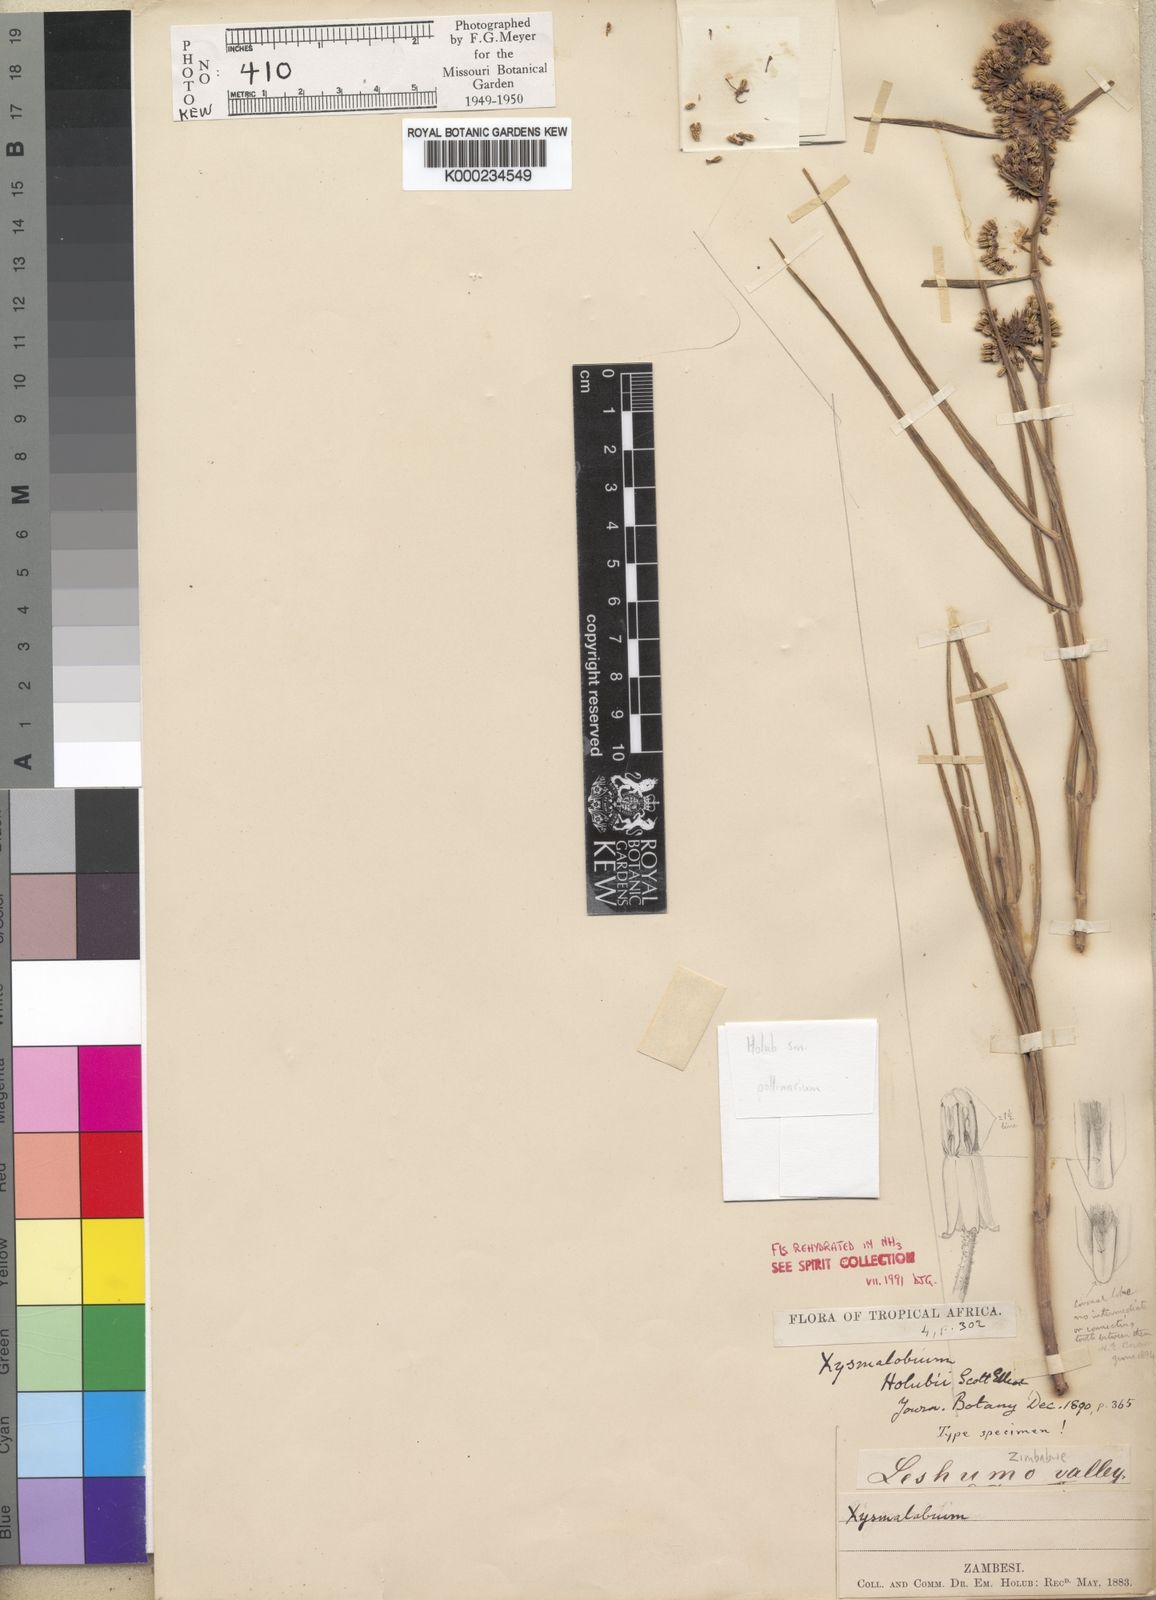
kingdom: Plantae
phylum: Tracheophyta
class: Magnoliopsida
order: Gentianales
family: Apocynaceae
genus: Xysmalobium
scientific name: Xysmalobium holubii
